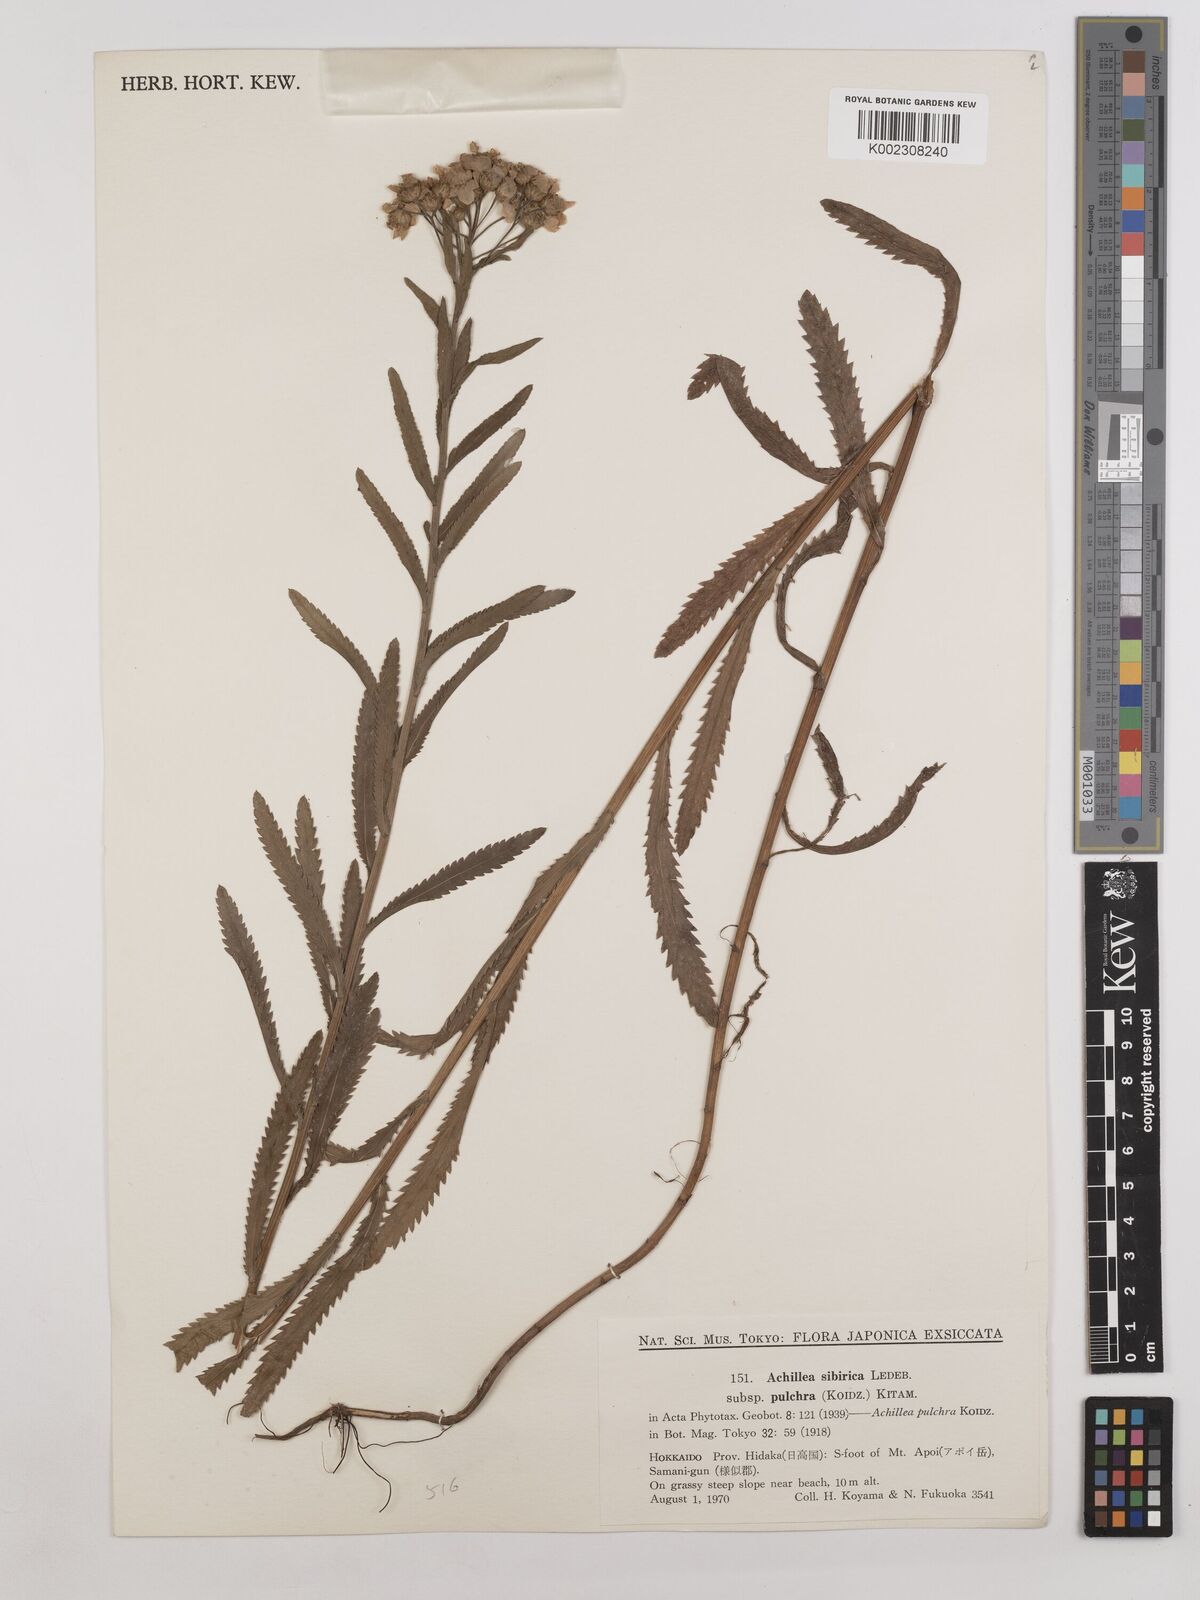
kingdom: Plantae
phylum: Tracheophyta
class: Magnoliopsida
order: Asterales
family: Asteraceae
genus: Achillea
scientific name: Achillea alpina
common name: Siberian yarrow
